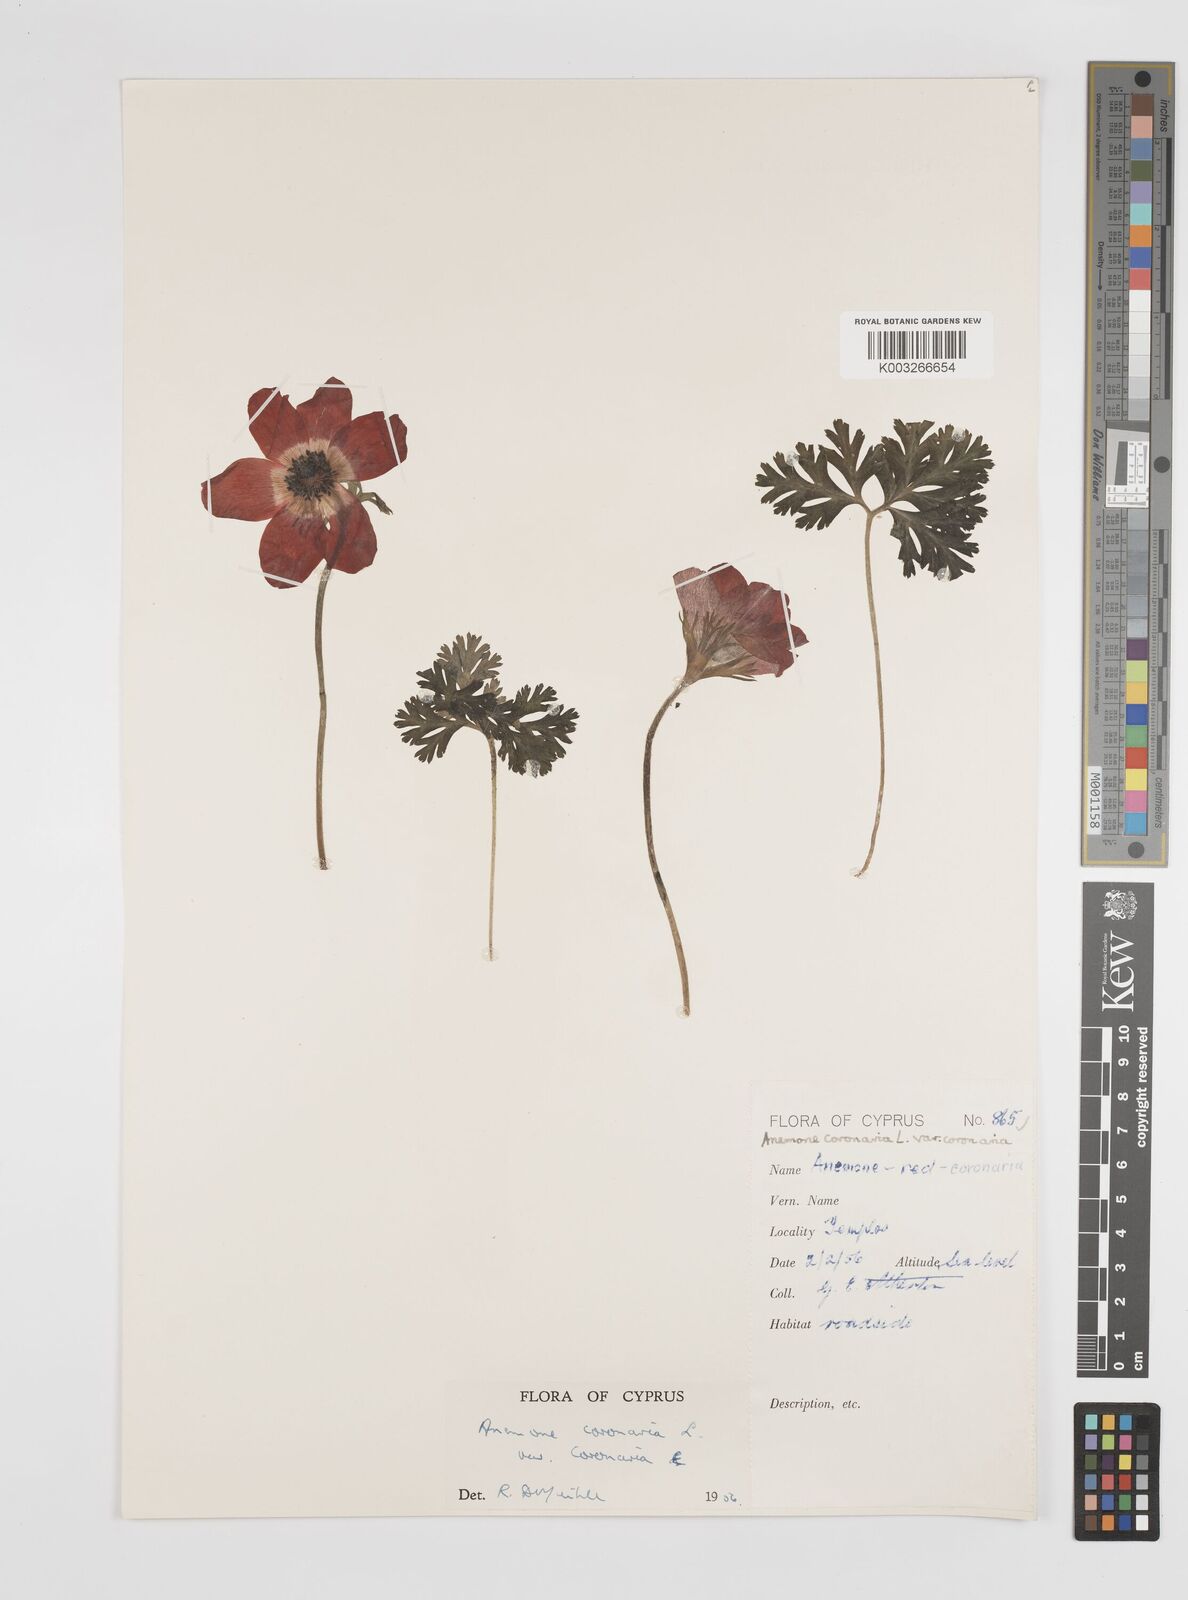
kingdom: Plantae
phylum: Tracheophyta
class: Magnoliopsida
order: Ranunculales
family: Ranunculaceae
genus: Anemone
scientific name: Anemone coronaria
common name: Poppy anemone
